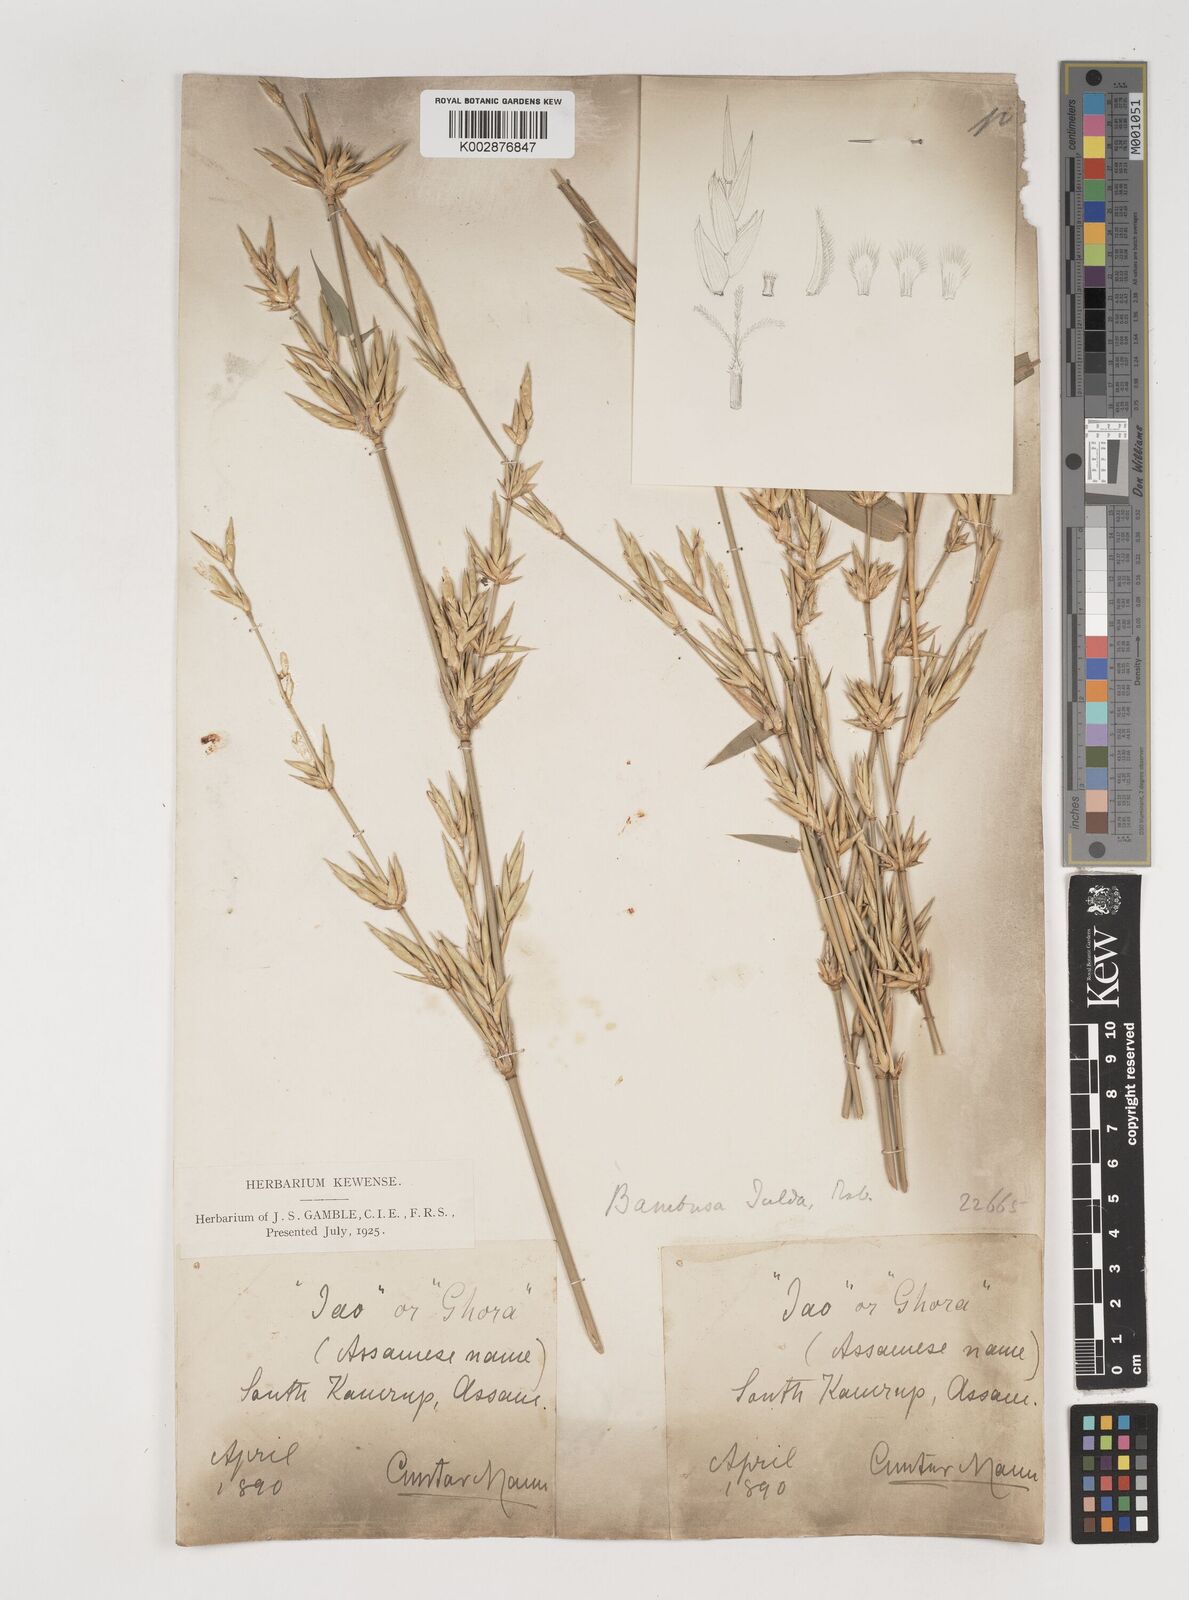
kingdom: Plantae
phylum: Tracheophyta
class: Liliopsida
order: Poales
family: Poaceae
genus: Bambusa
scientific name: Bambusa tulda
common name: Bengal bamboo
